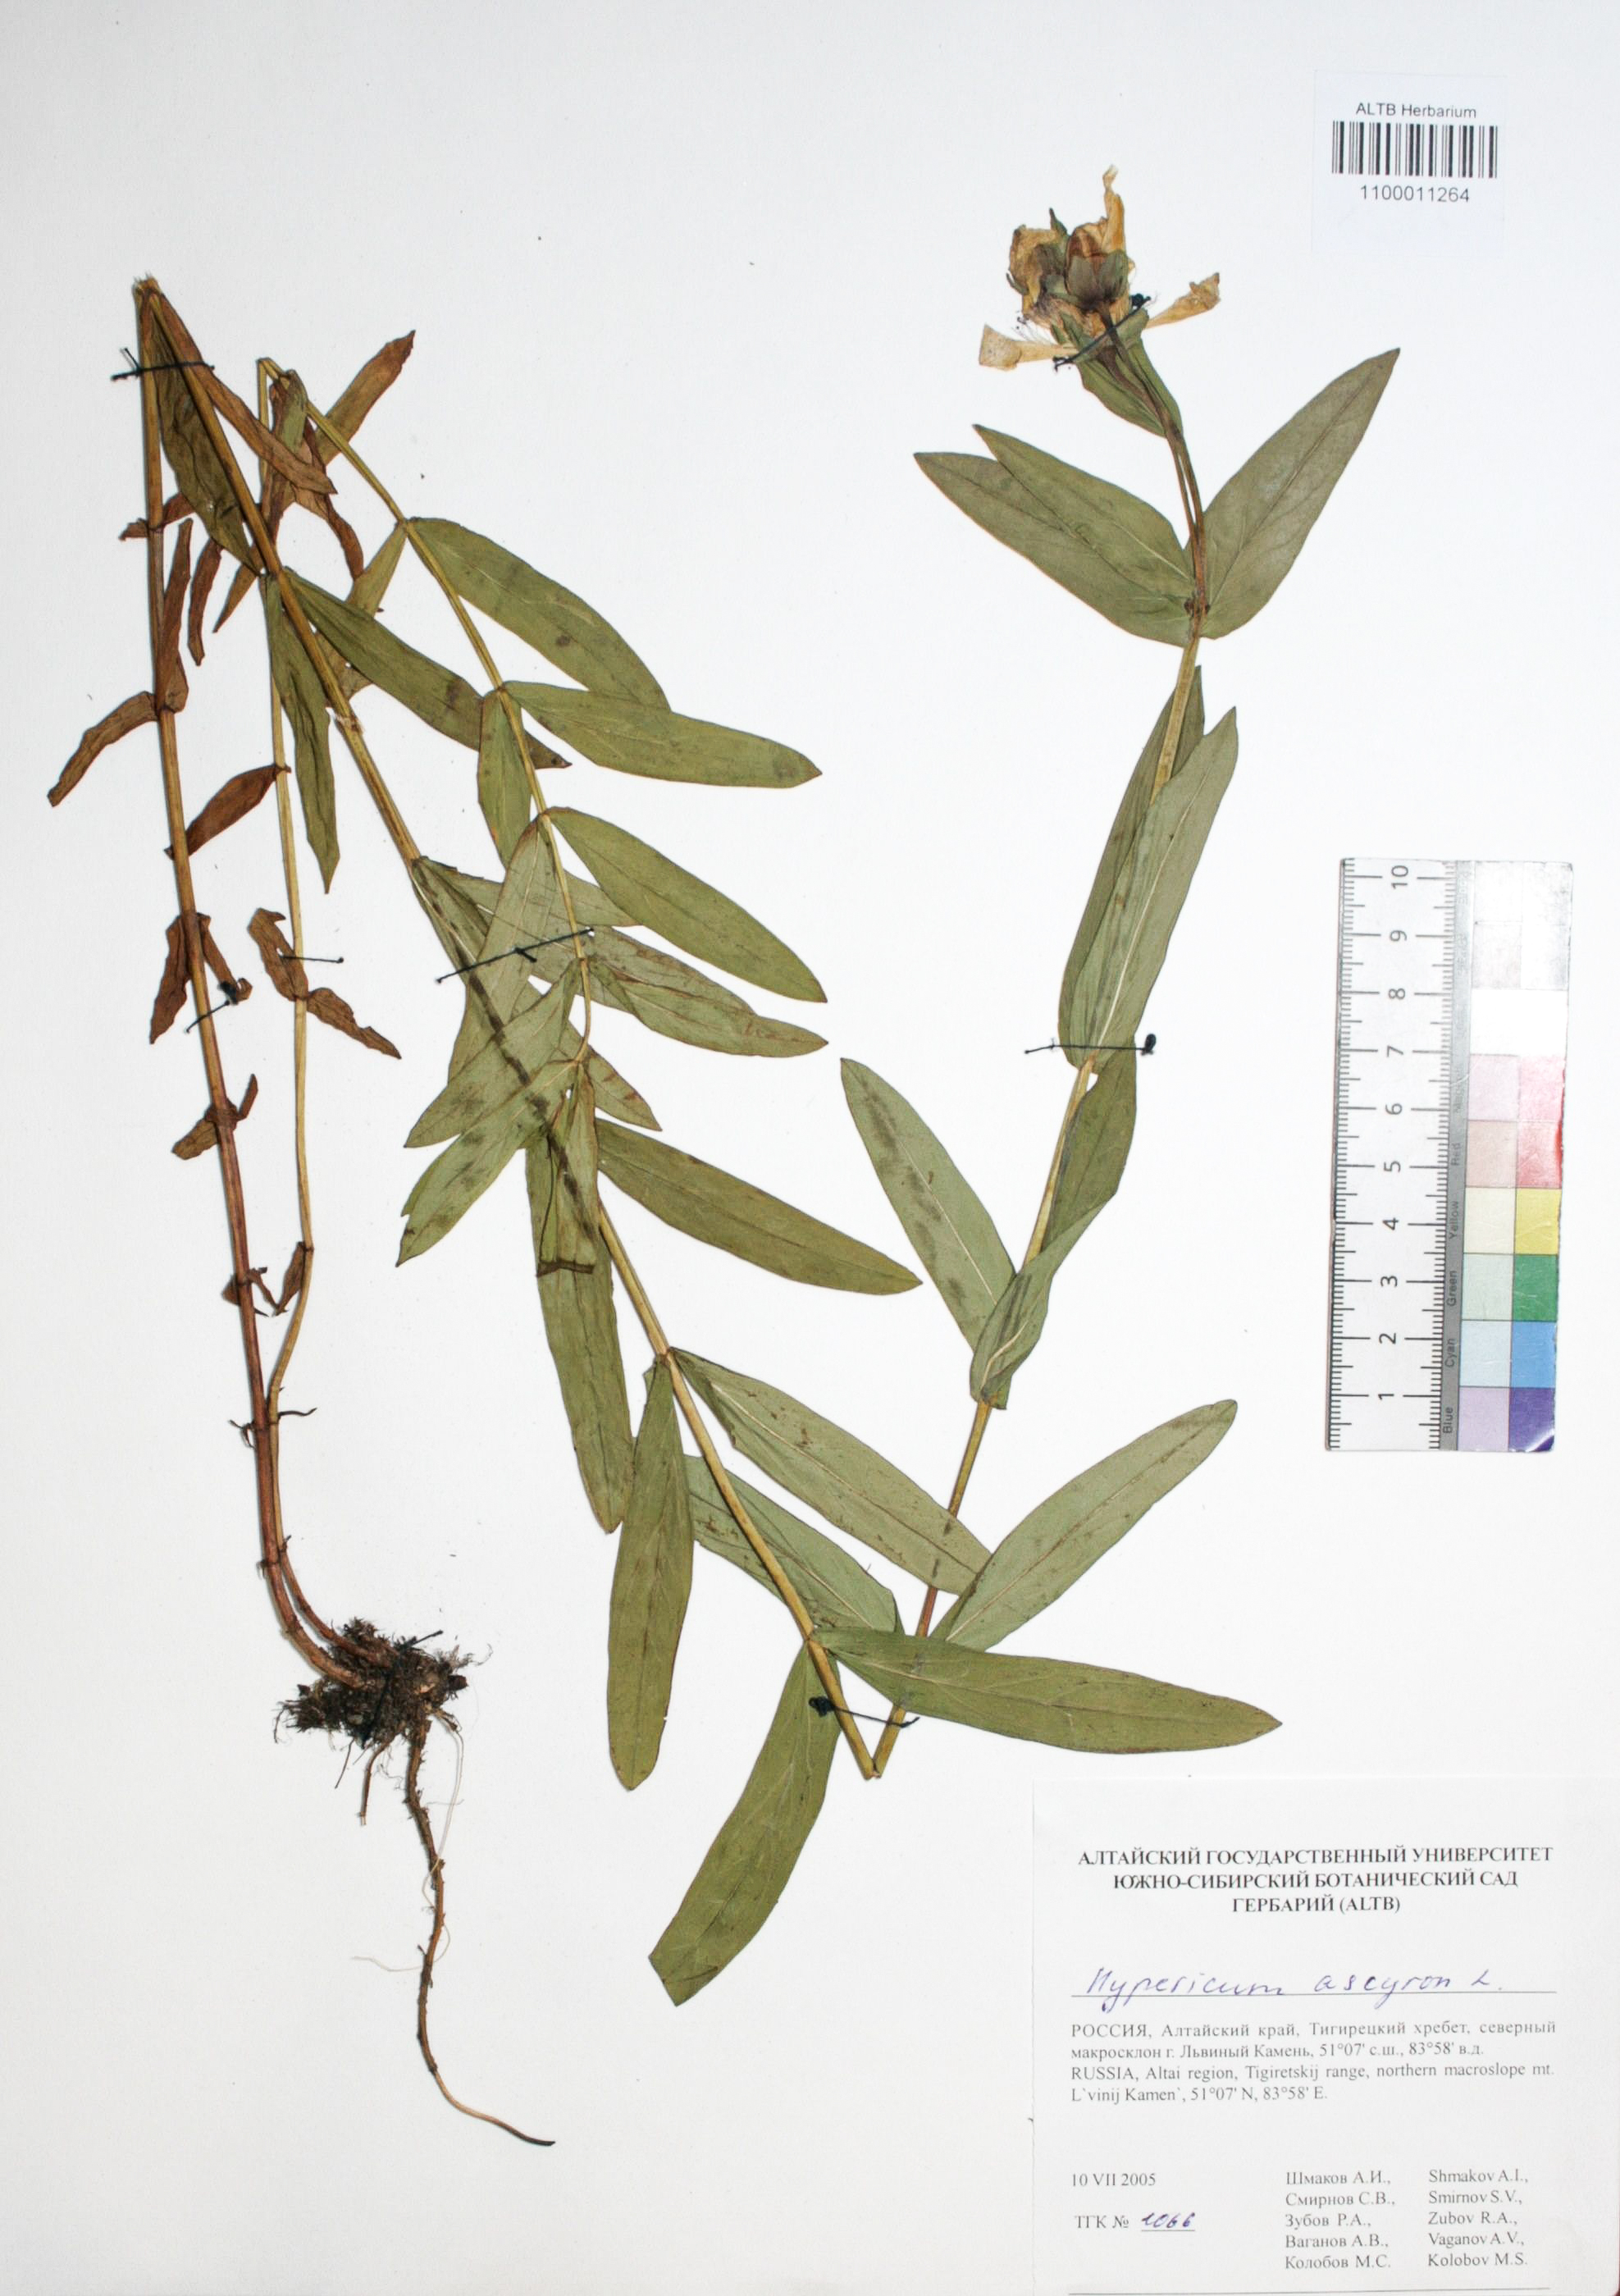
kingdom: Plantae
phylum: Tracheophyta
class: Magnoliopsida
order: Malpighiales
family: Hypericaceae
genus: Hypericum
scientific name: Hypericum ascyron
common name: Giant st. john's-wort
